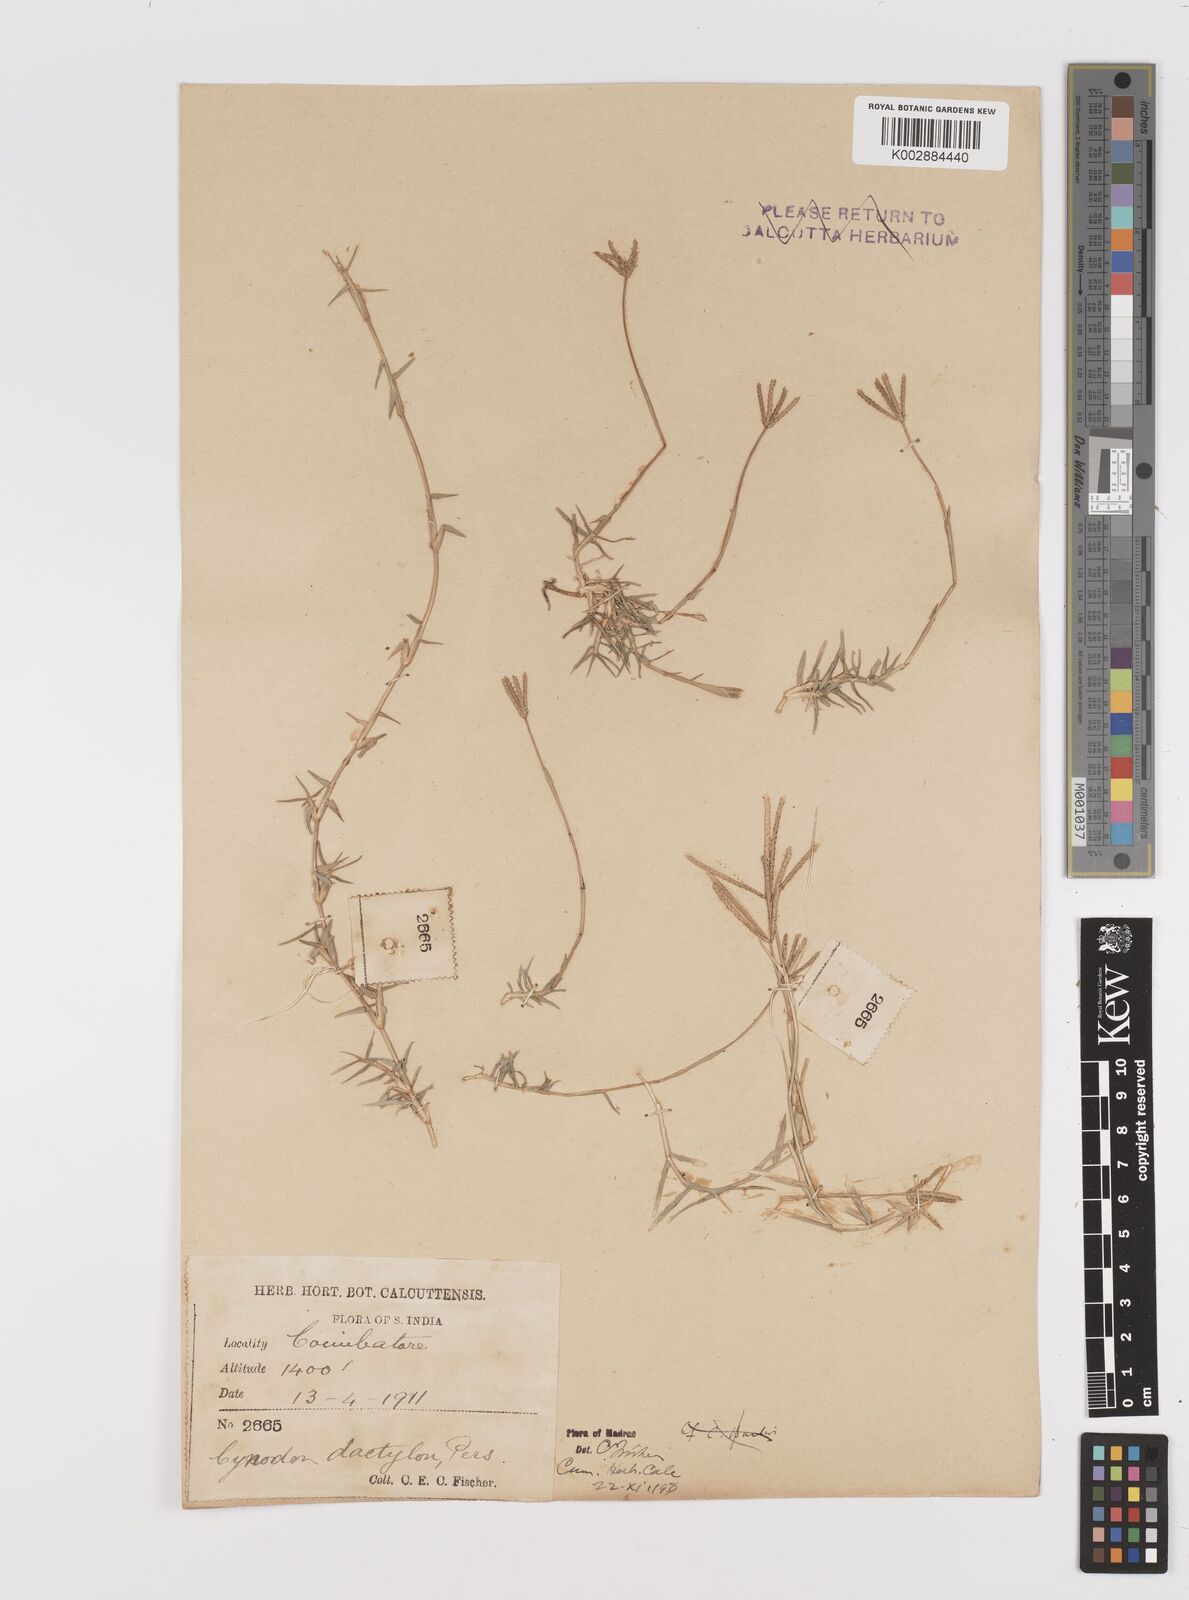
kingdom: Plantae
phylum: Tracheophyta
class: Liliopsida
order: Poales
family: Poaceae
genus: Cynodon
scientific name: Cynodon dactylon
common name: Bermuda grass
